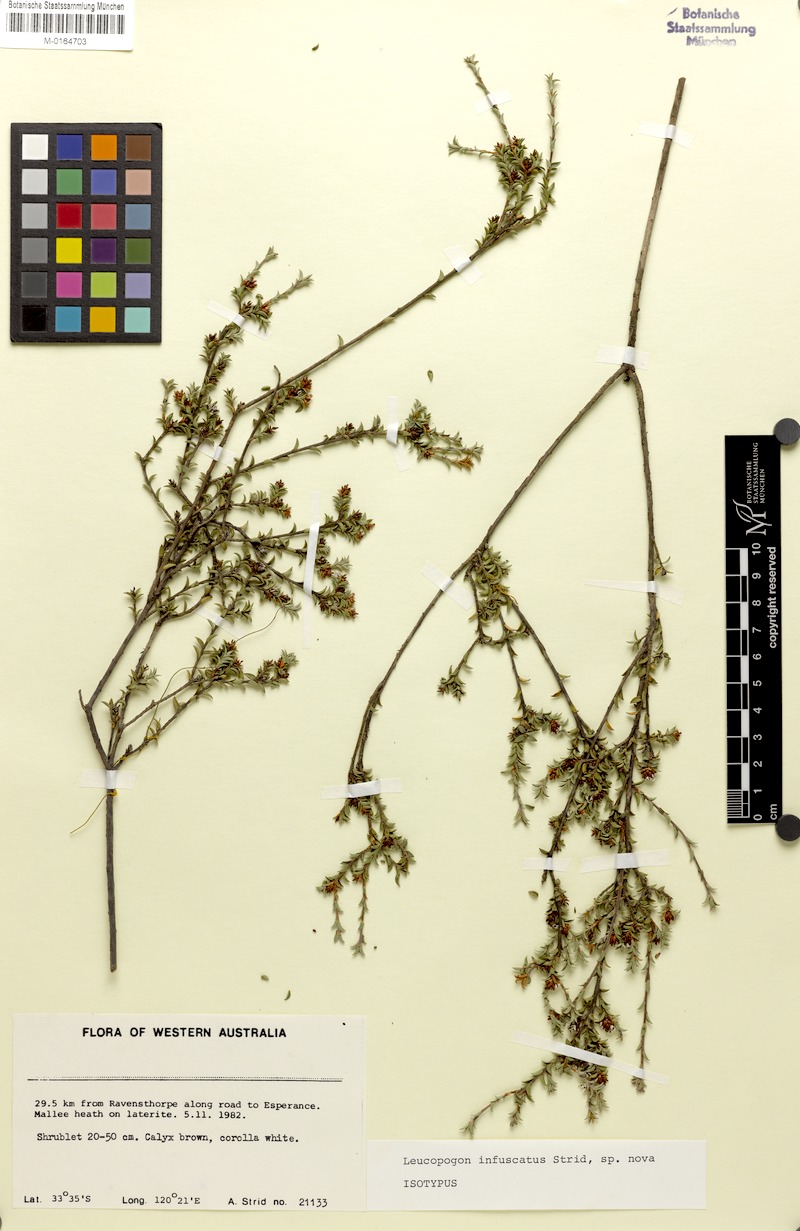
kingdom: Plantae
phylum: Tracheophyta
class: Magnoliopsida
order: Ericales
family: Ericaceae
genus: Leucopogon
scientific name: Leucopogon infuscatus
